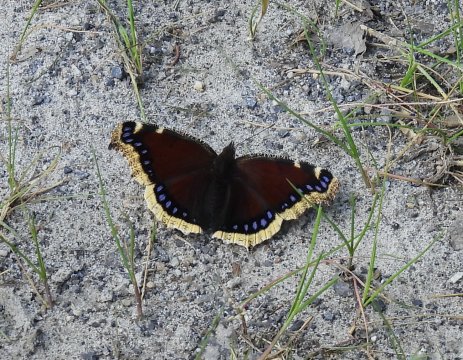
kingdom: Animalia
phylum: Arthropoda
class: Insecta
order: Lepidoptera
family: Nymphalidae
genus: Nymphalis
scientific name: Nymphalis antiopa
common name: Mourning Cloak
